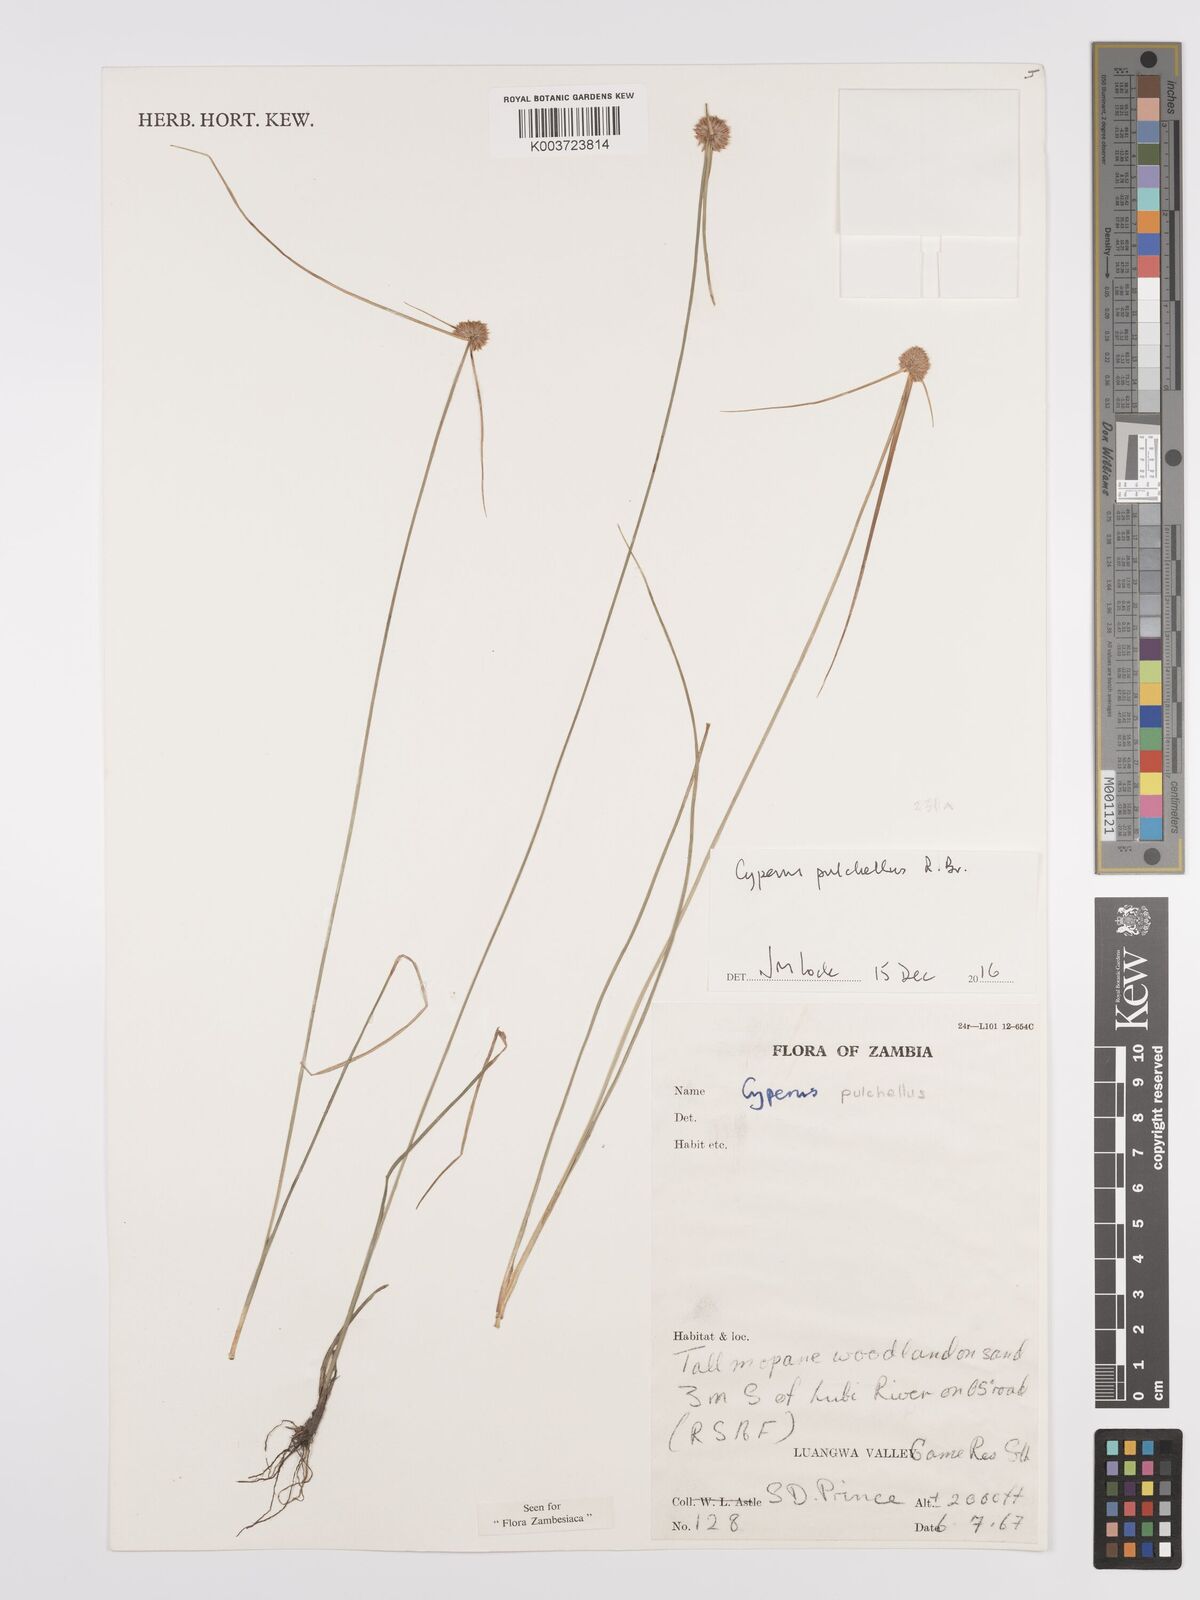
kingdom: Plantae
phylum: Tracheophyta
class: Liliopsida
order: Poales
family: Cyperaceae
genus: Cyperus
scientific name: Cyperus pulchellus
